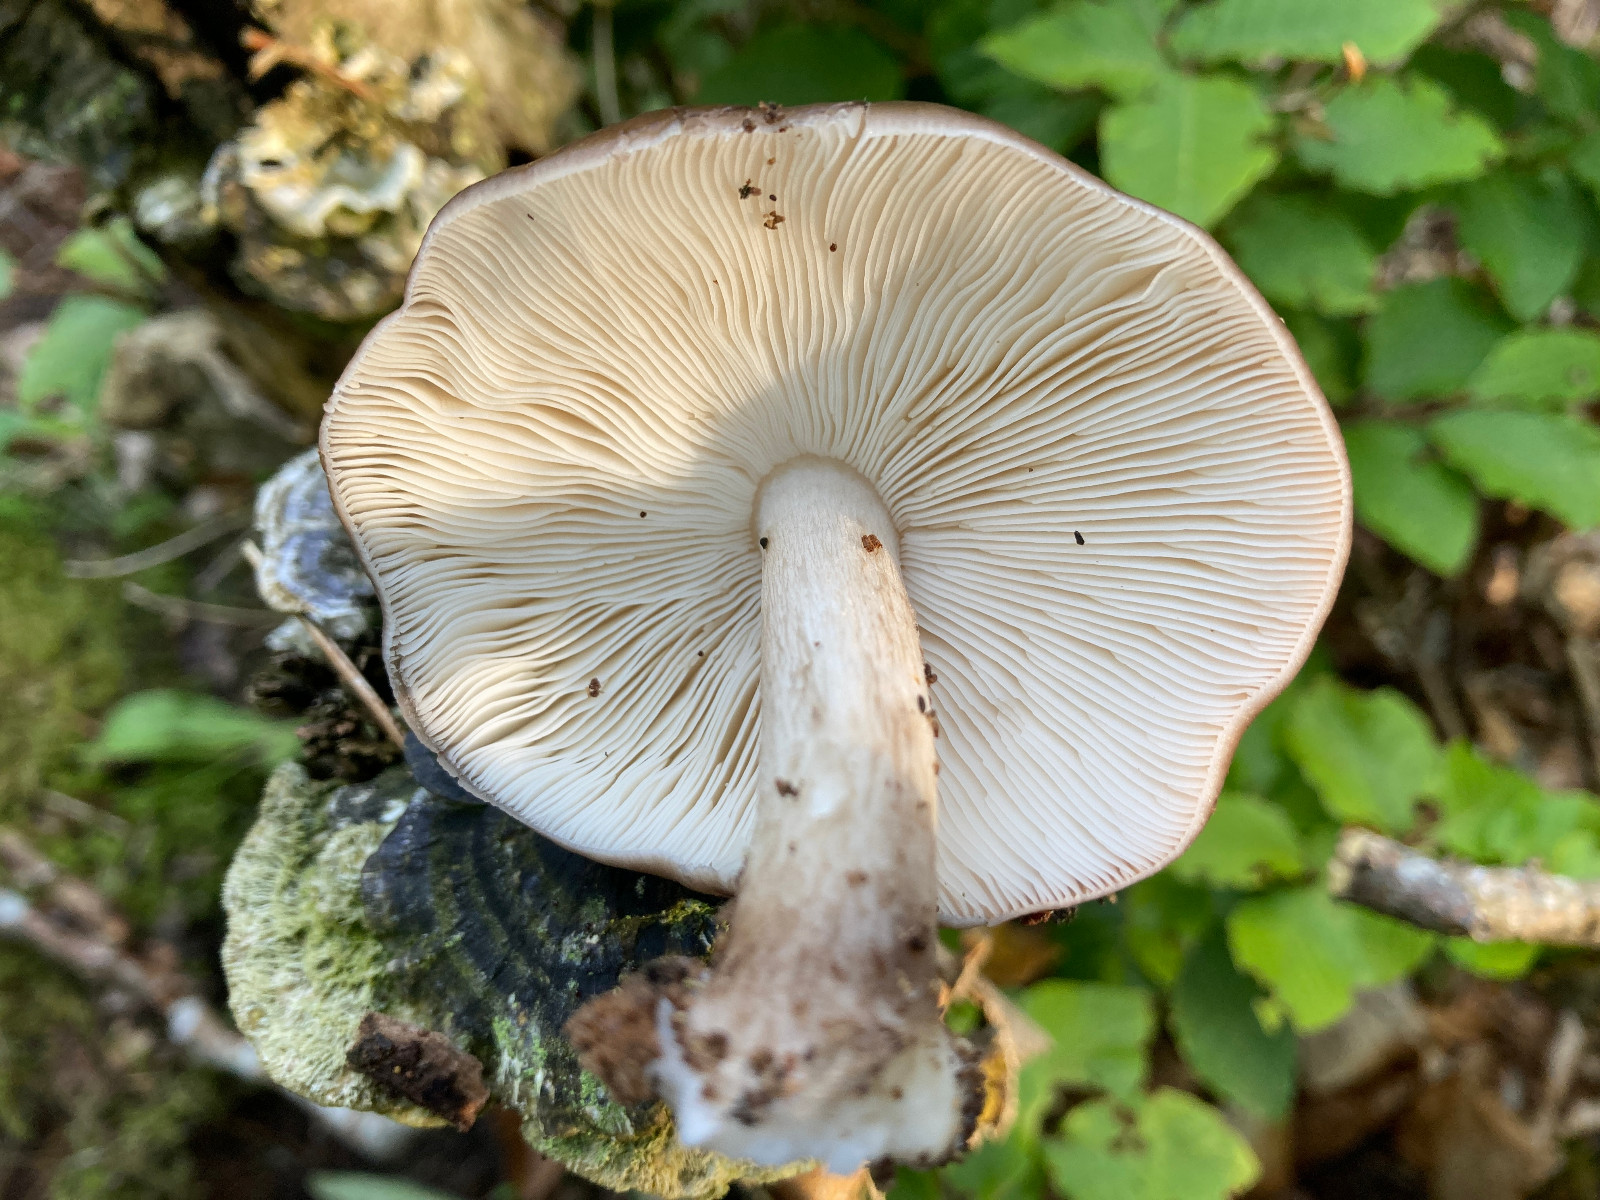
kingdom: Fungi
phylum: Basidiomycota
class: Agaricomycetes
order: Agaricales
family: Pluteaceae
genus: Pluteus
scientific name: Pluteus cervinus
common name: sodfarvet skærmhat
